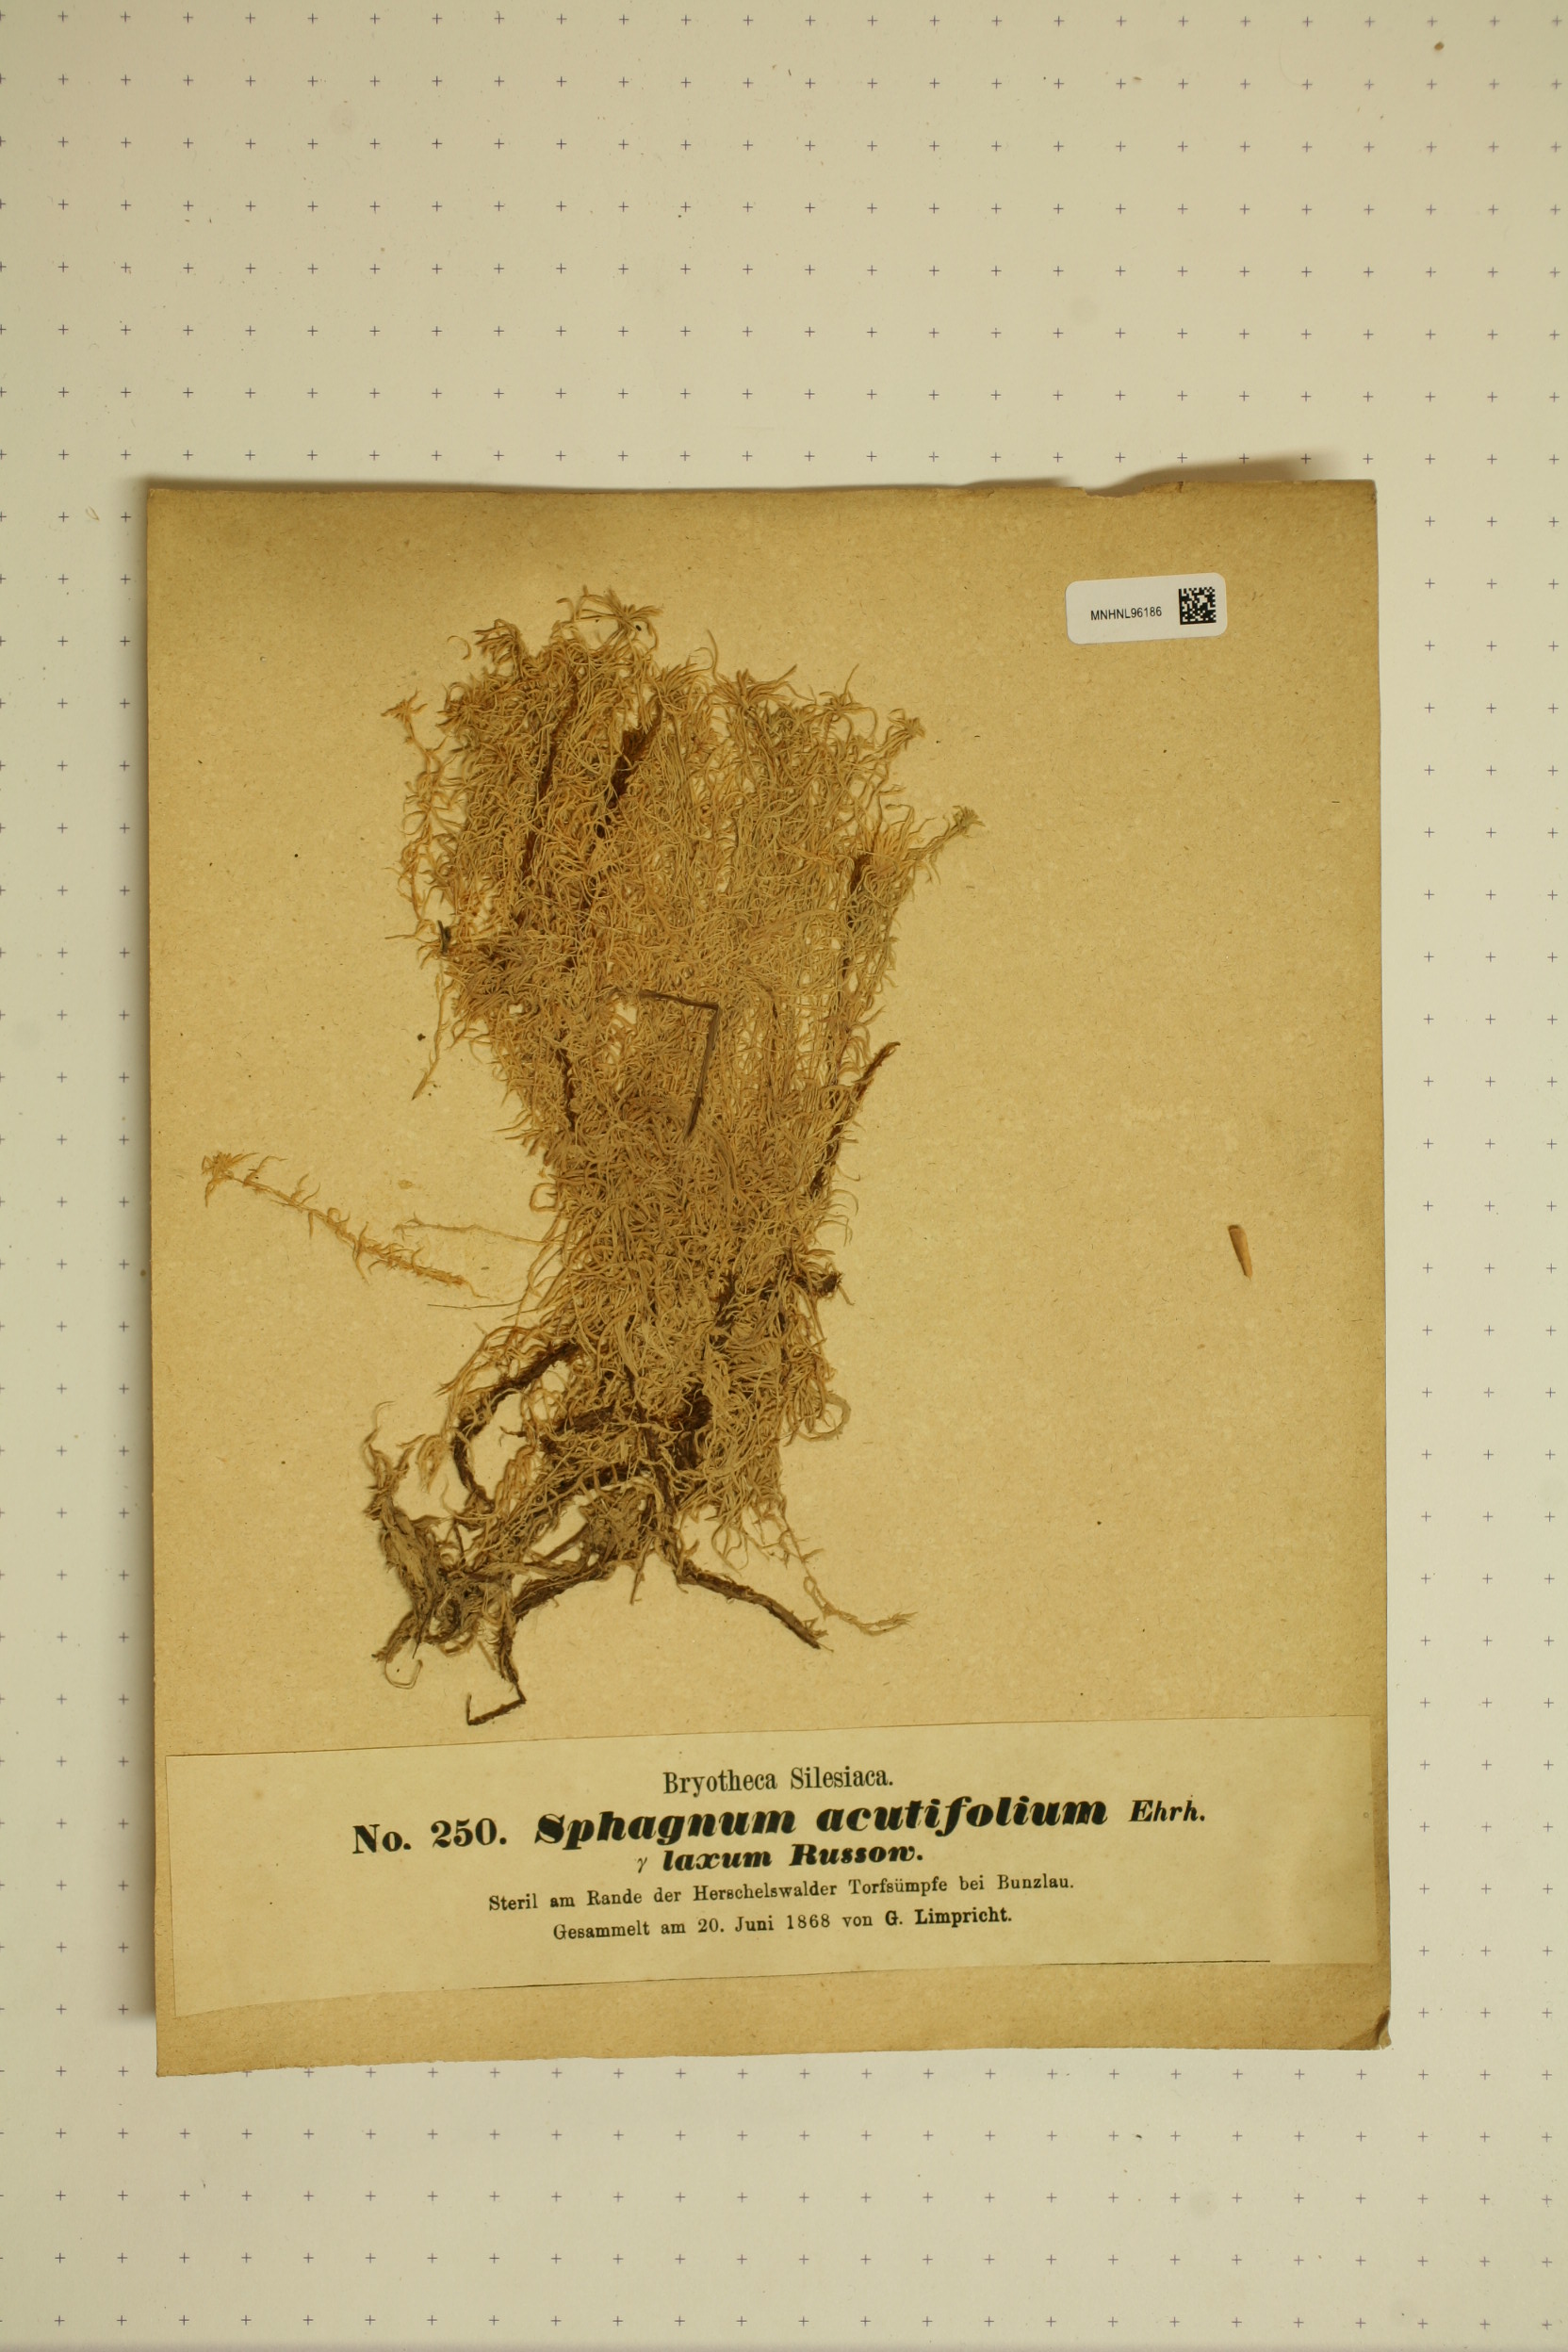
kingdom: Plantae
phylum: Bryophyta
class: Sphagnopsida
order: Sphagnales
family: Sphagnaceae
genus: Sphagnum
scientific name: Sphagnum quinquefarium
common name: Five-ranked peat moss
